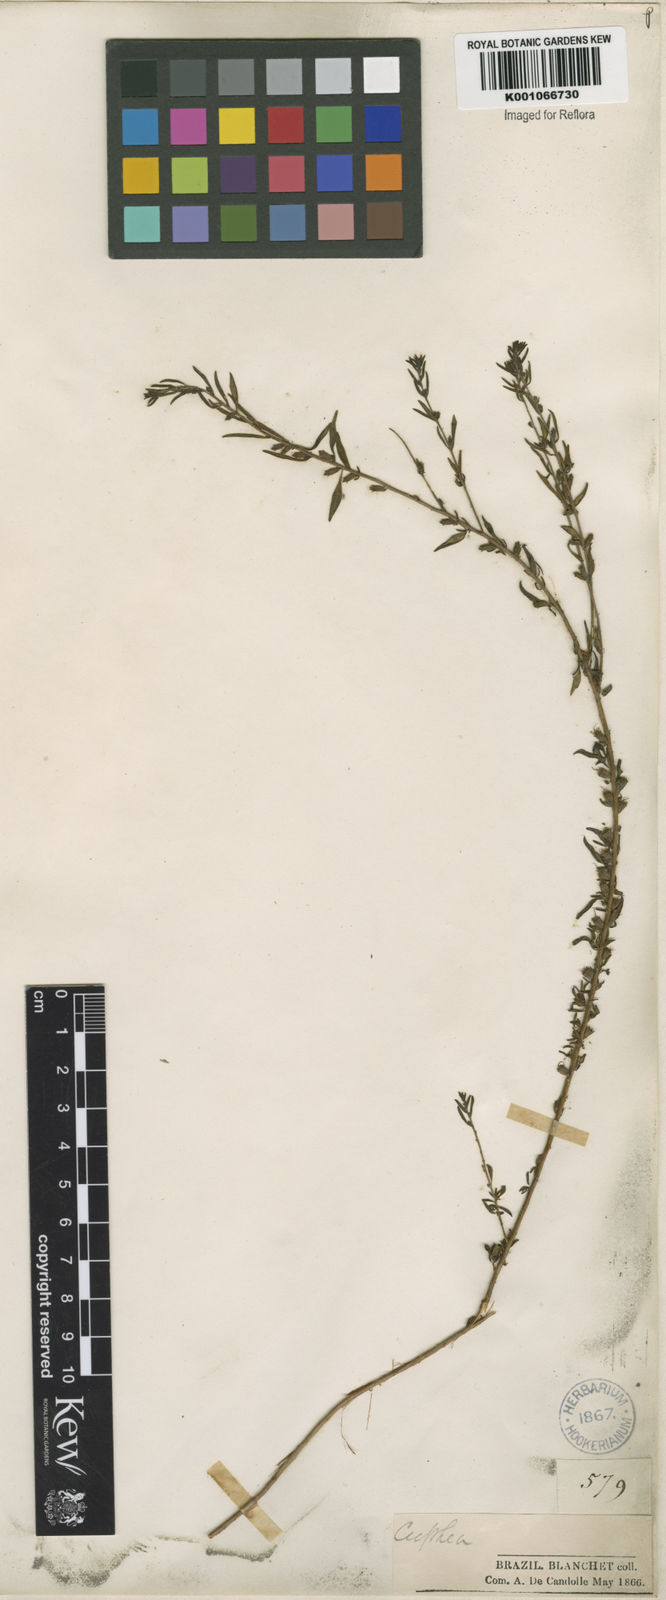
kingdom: Plantae
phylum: Tracheophyta
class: Magnoliopsida
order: Myrtales
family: Lythraceae
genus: Pleurophora
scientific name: Pleurophora anomala
